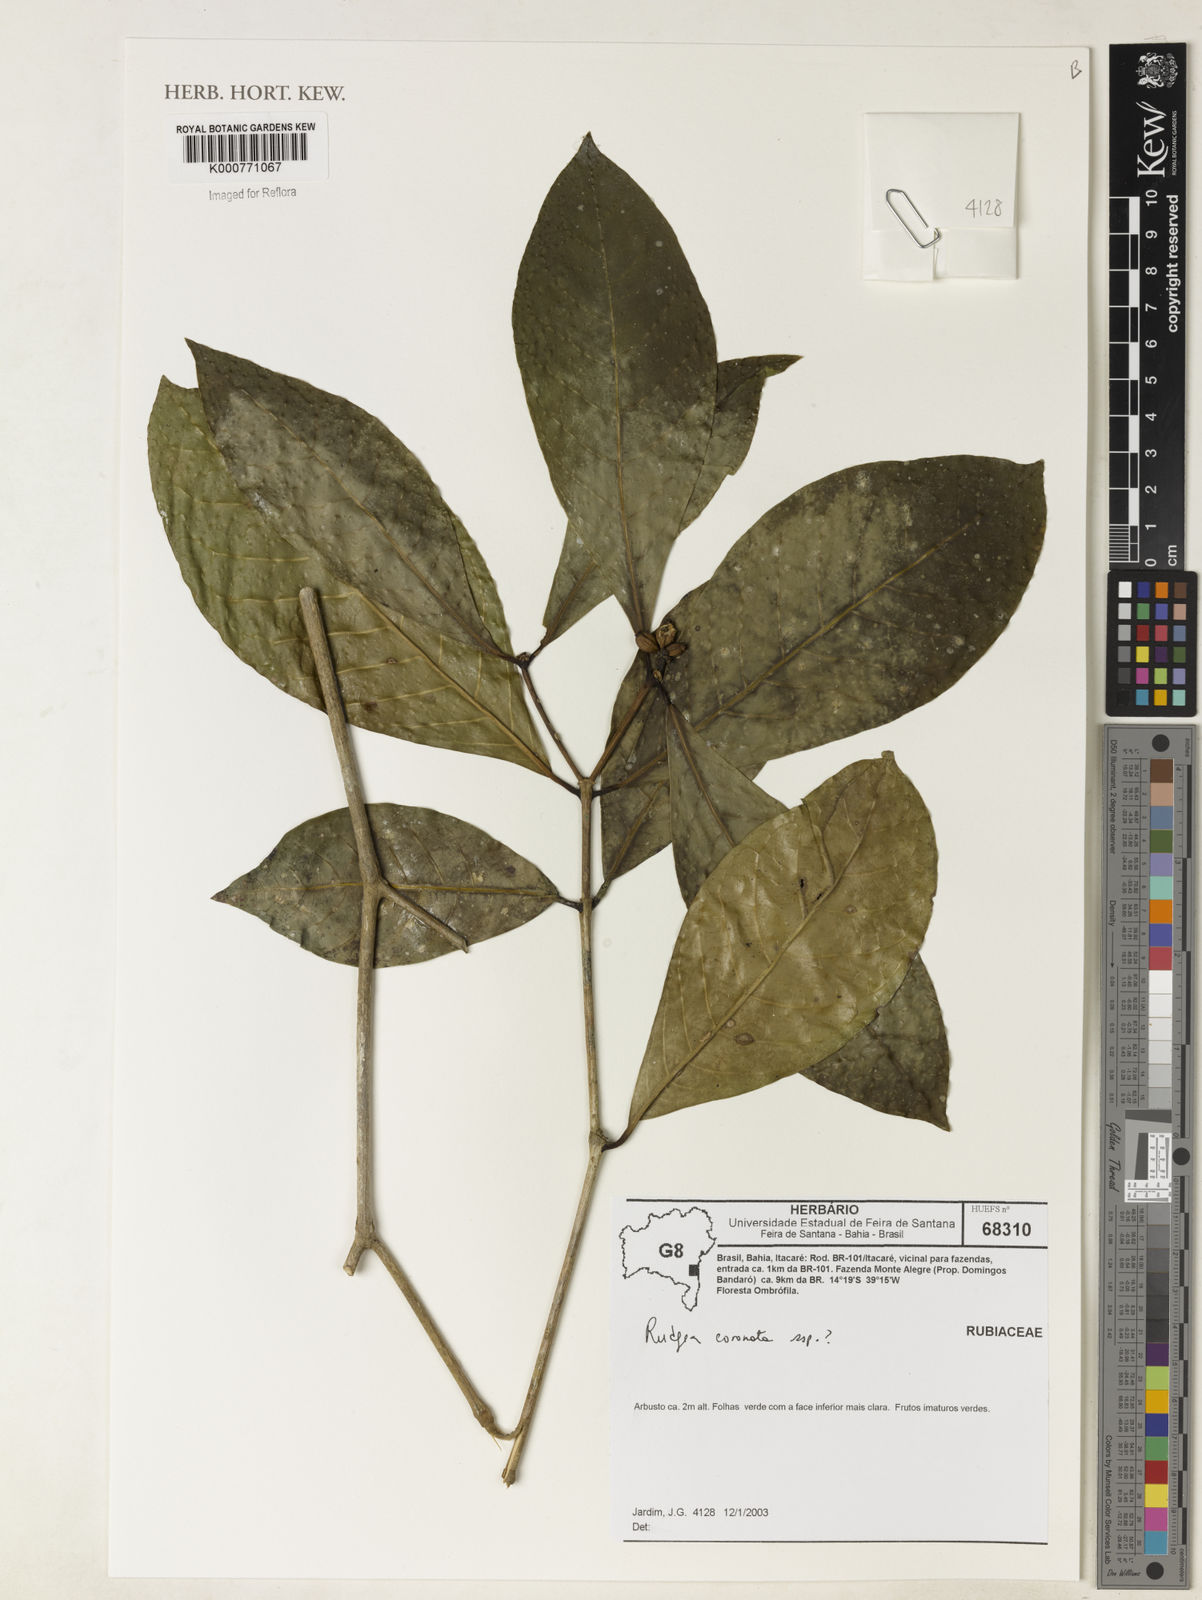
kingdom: Plantae
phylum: Tracheophyta
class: Magnoliopsida
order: Gentianales
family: Rubiaceae
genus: Rudgea
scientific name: Rudgea
